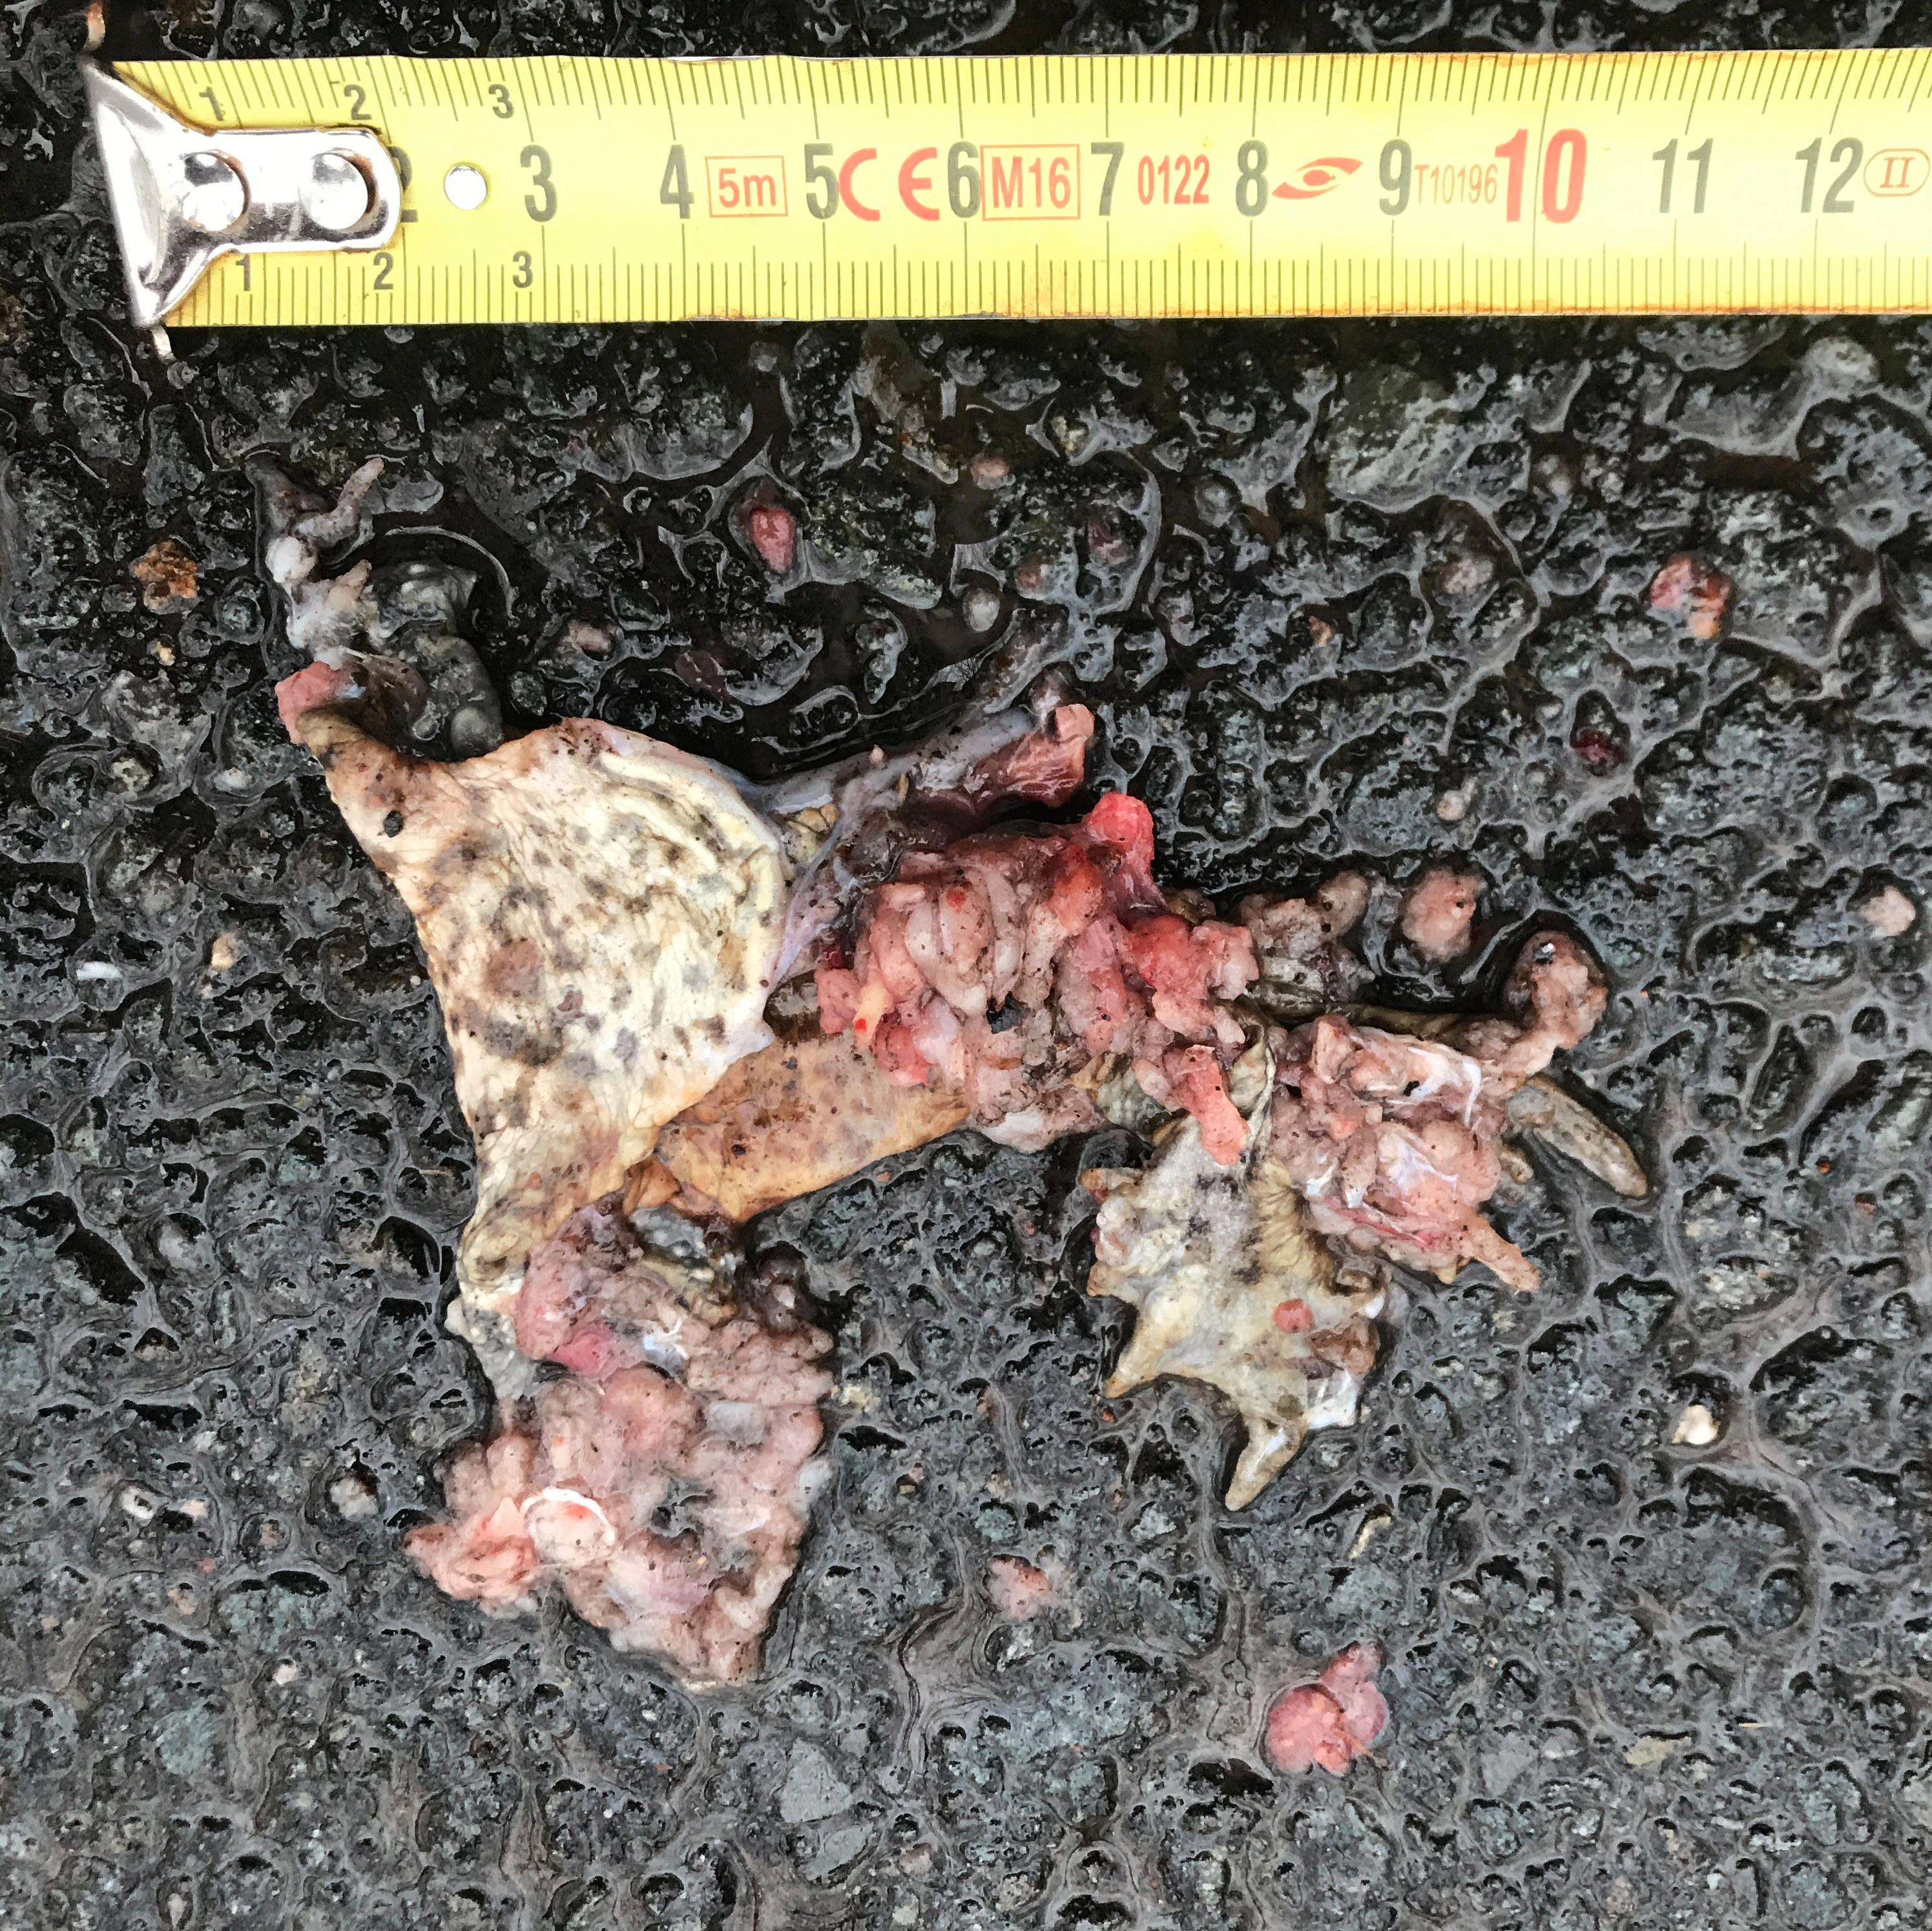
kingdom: Animalia
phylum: Chordata
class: Amphibia
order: Anura
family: Bufonidae
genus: Bufo
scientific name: Bufo bufo
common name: Common toad
